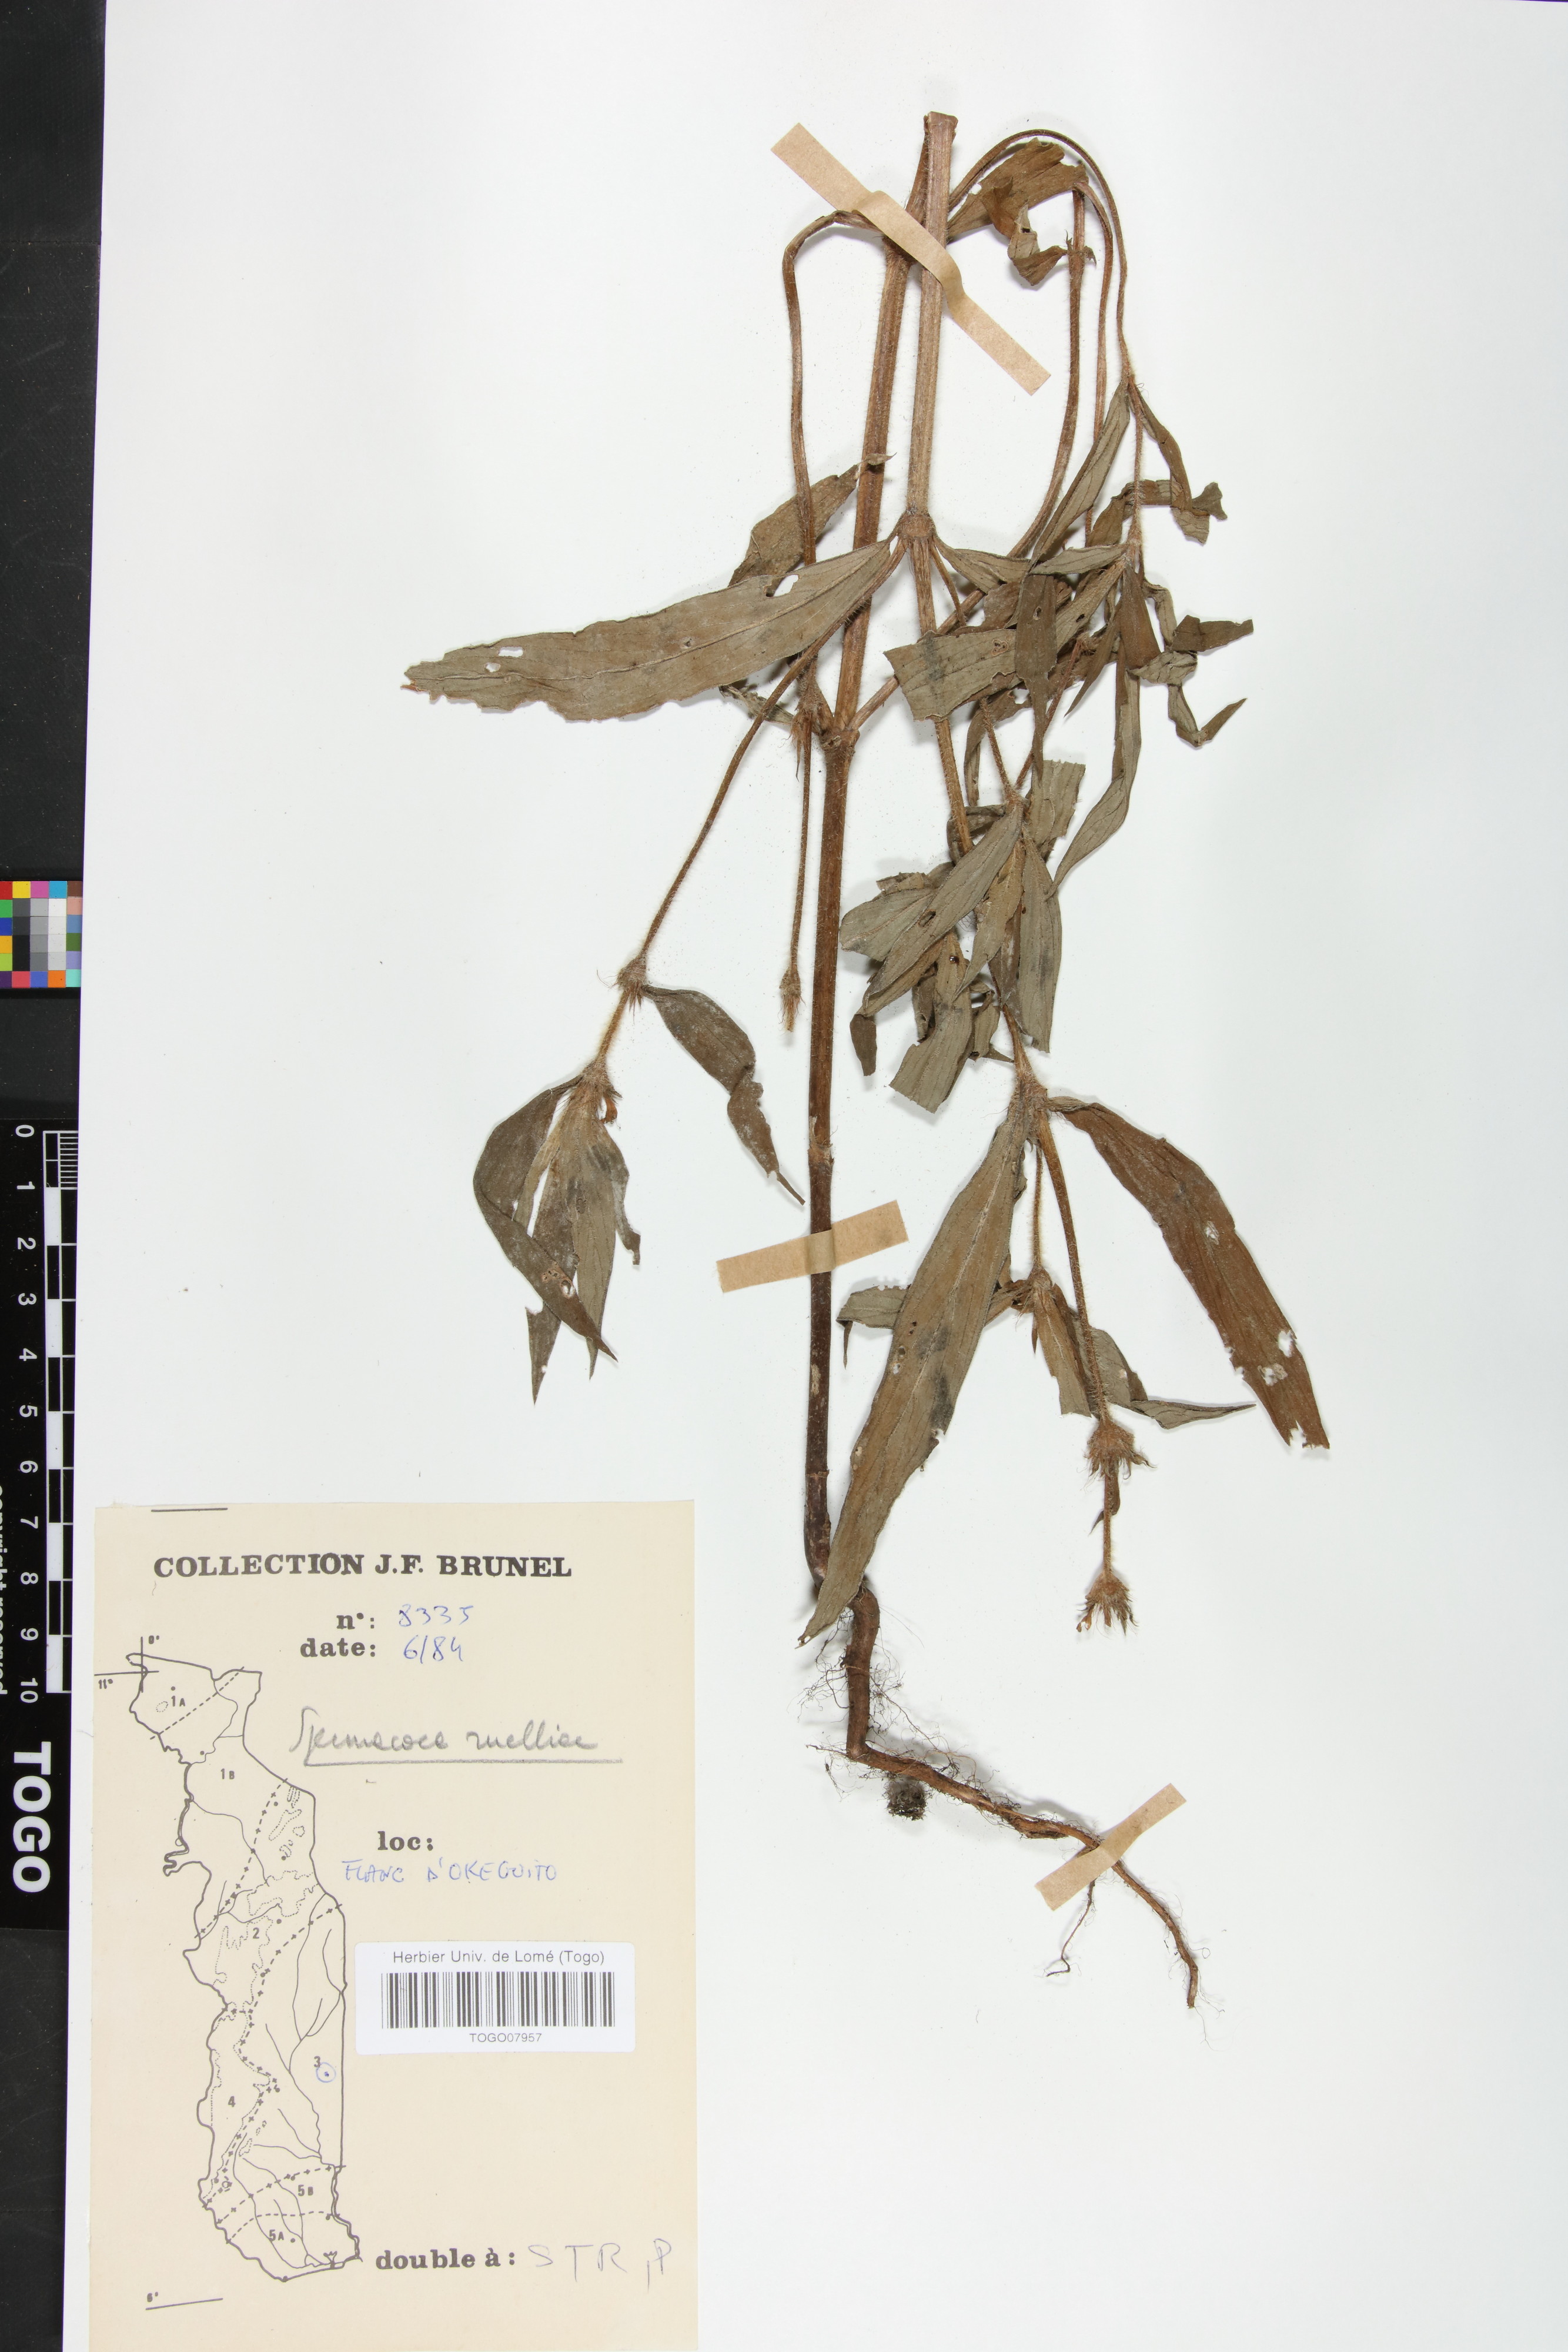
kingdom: Plantae
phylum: Tracheophyta
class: Magnoliopsida
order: Gentianales
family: Rubiaceae
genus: Spermacoce
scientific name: Spermacoce ruelliae
